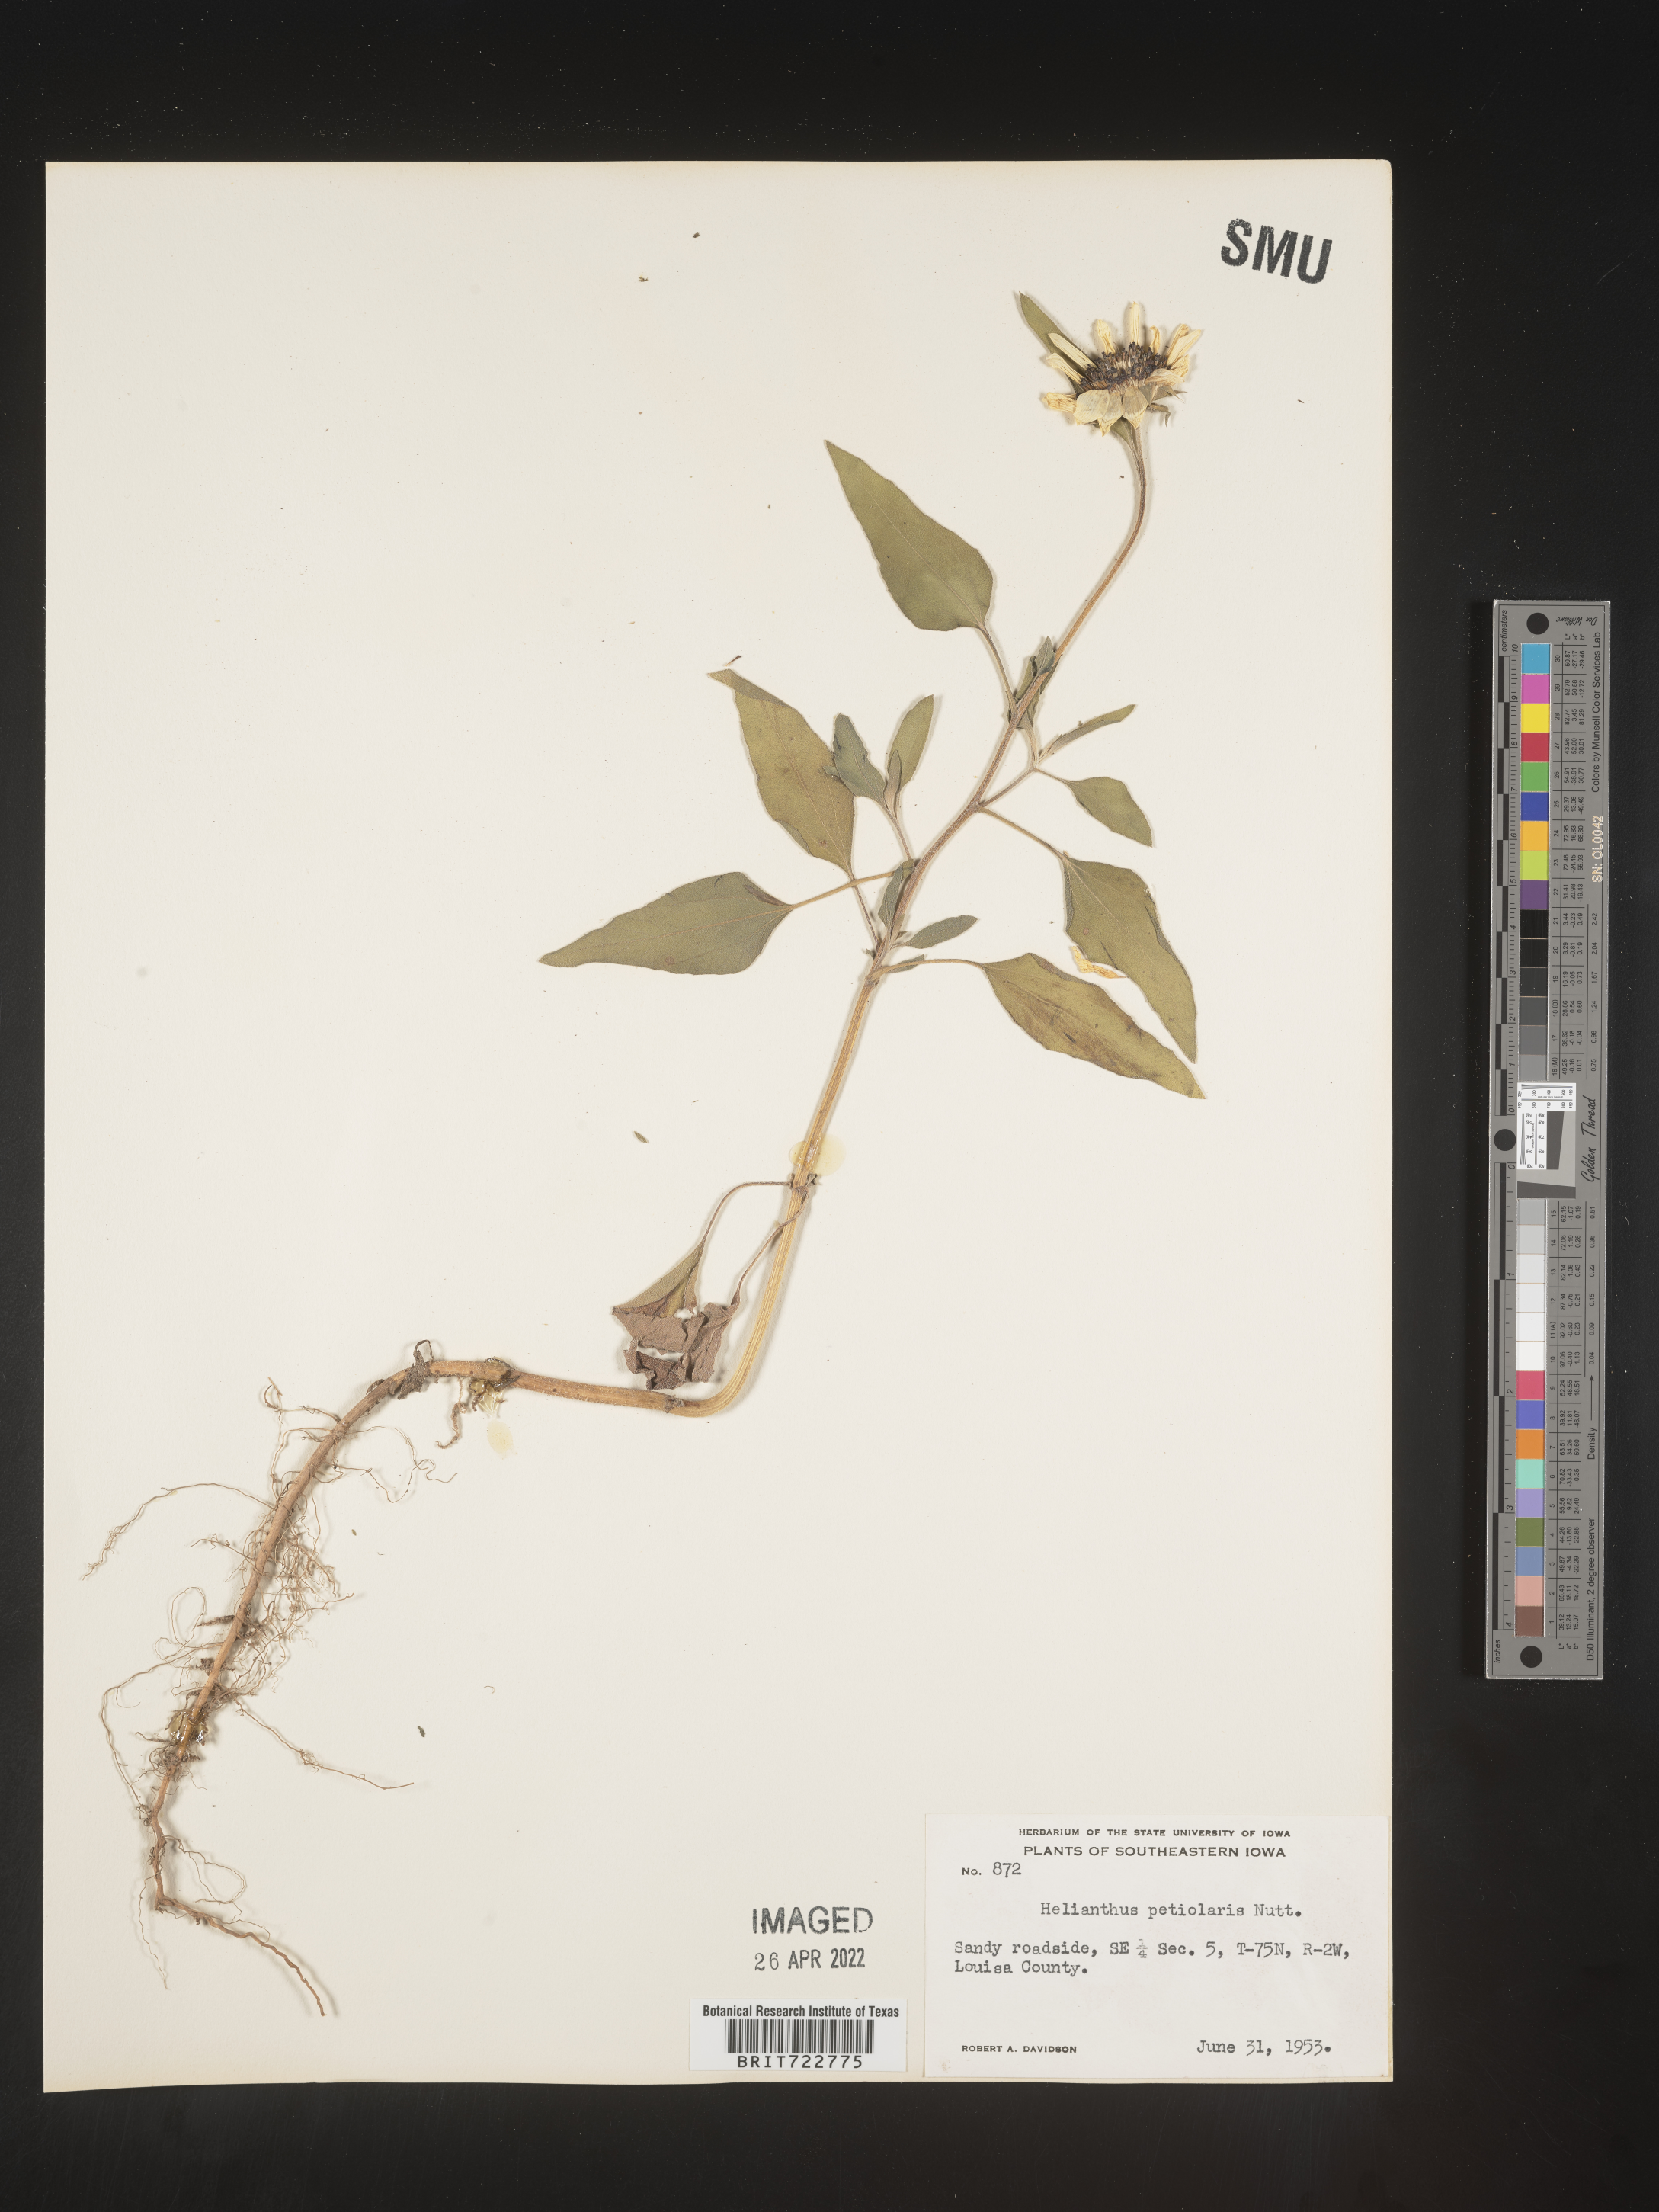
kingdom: Plantae
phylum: Tracheophyta
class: Magnoliopsida
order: Asterales
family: Asteraceae
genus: Helianthus
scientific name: Helianthus petiolaris
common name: Lesser sunflower
